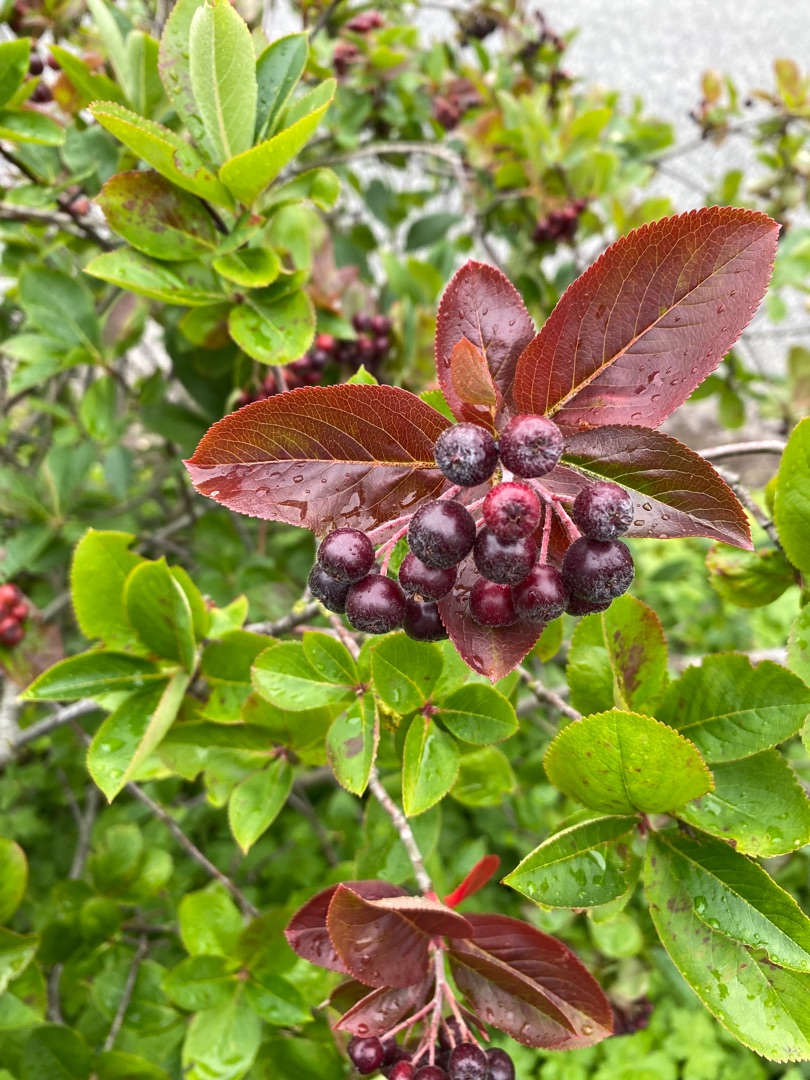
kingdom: Plantae
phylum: Tracheophyta
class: Magnoliopsida
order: Rosales
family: Rosaceae
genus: Aronia
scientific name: Aronia prunifolia
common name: Blommebladet surbær
